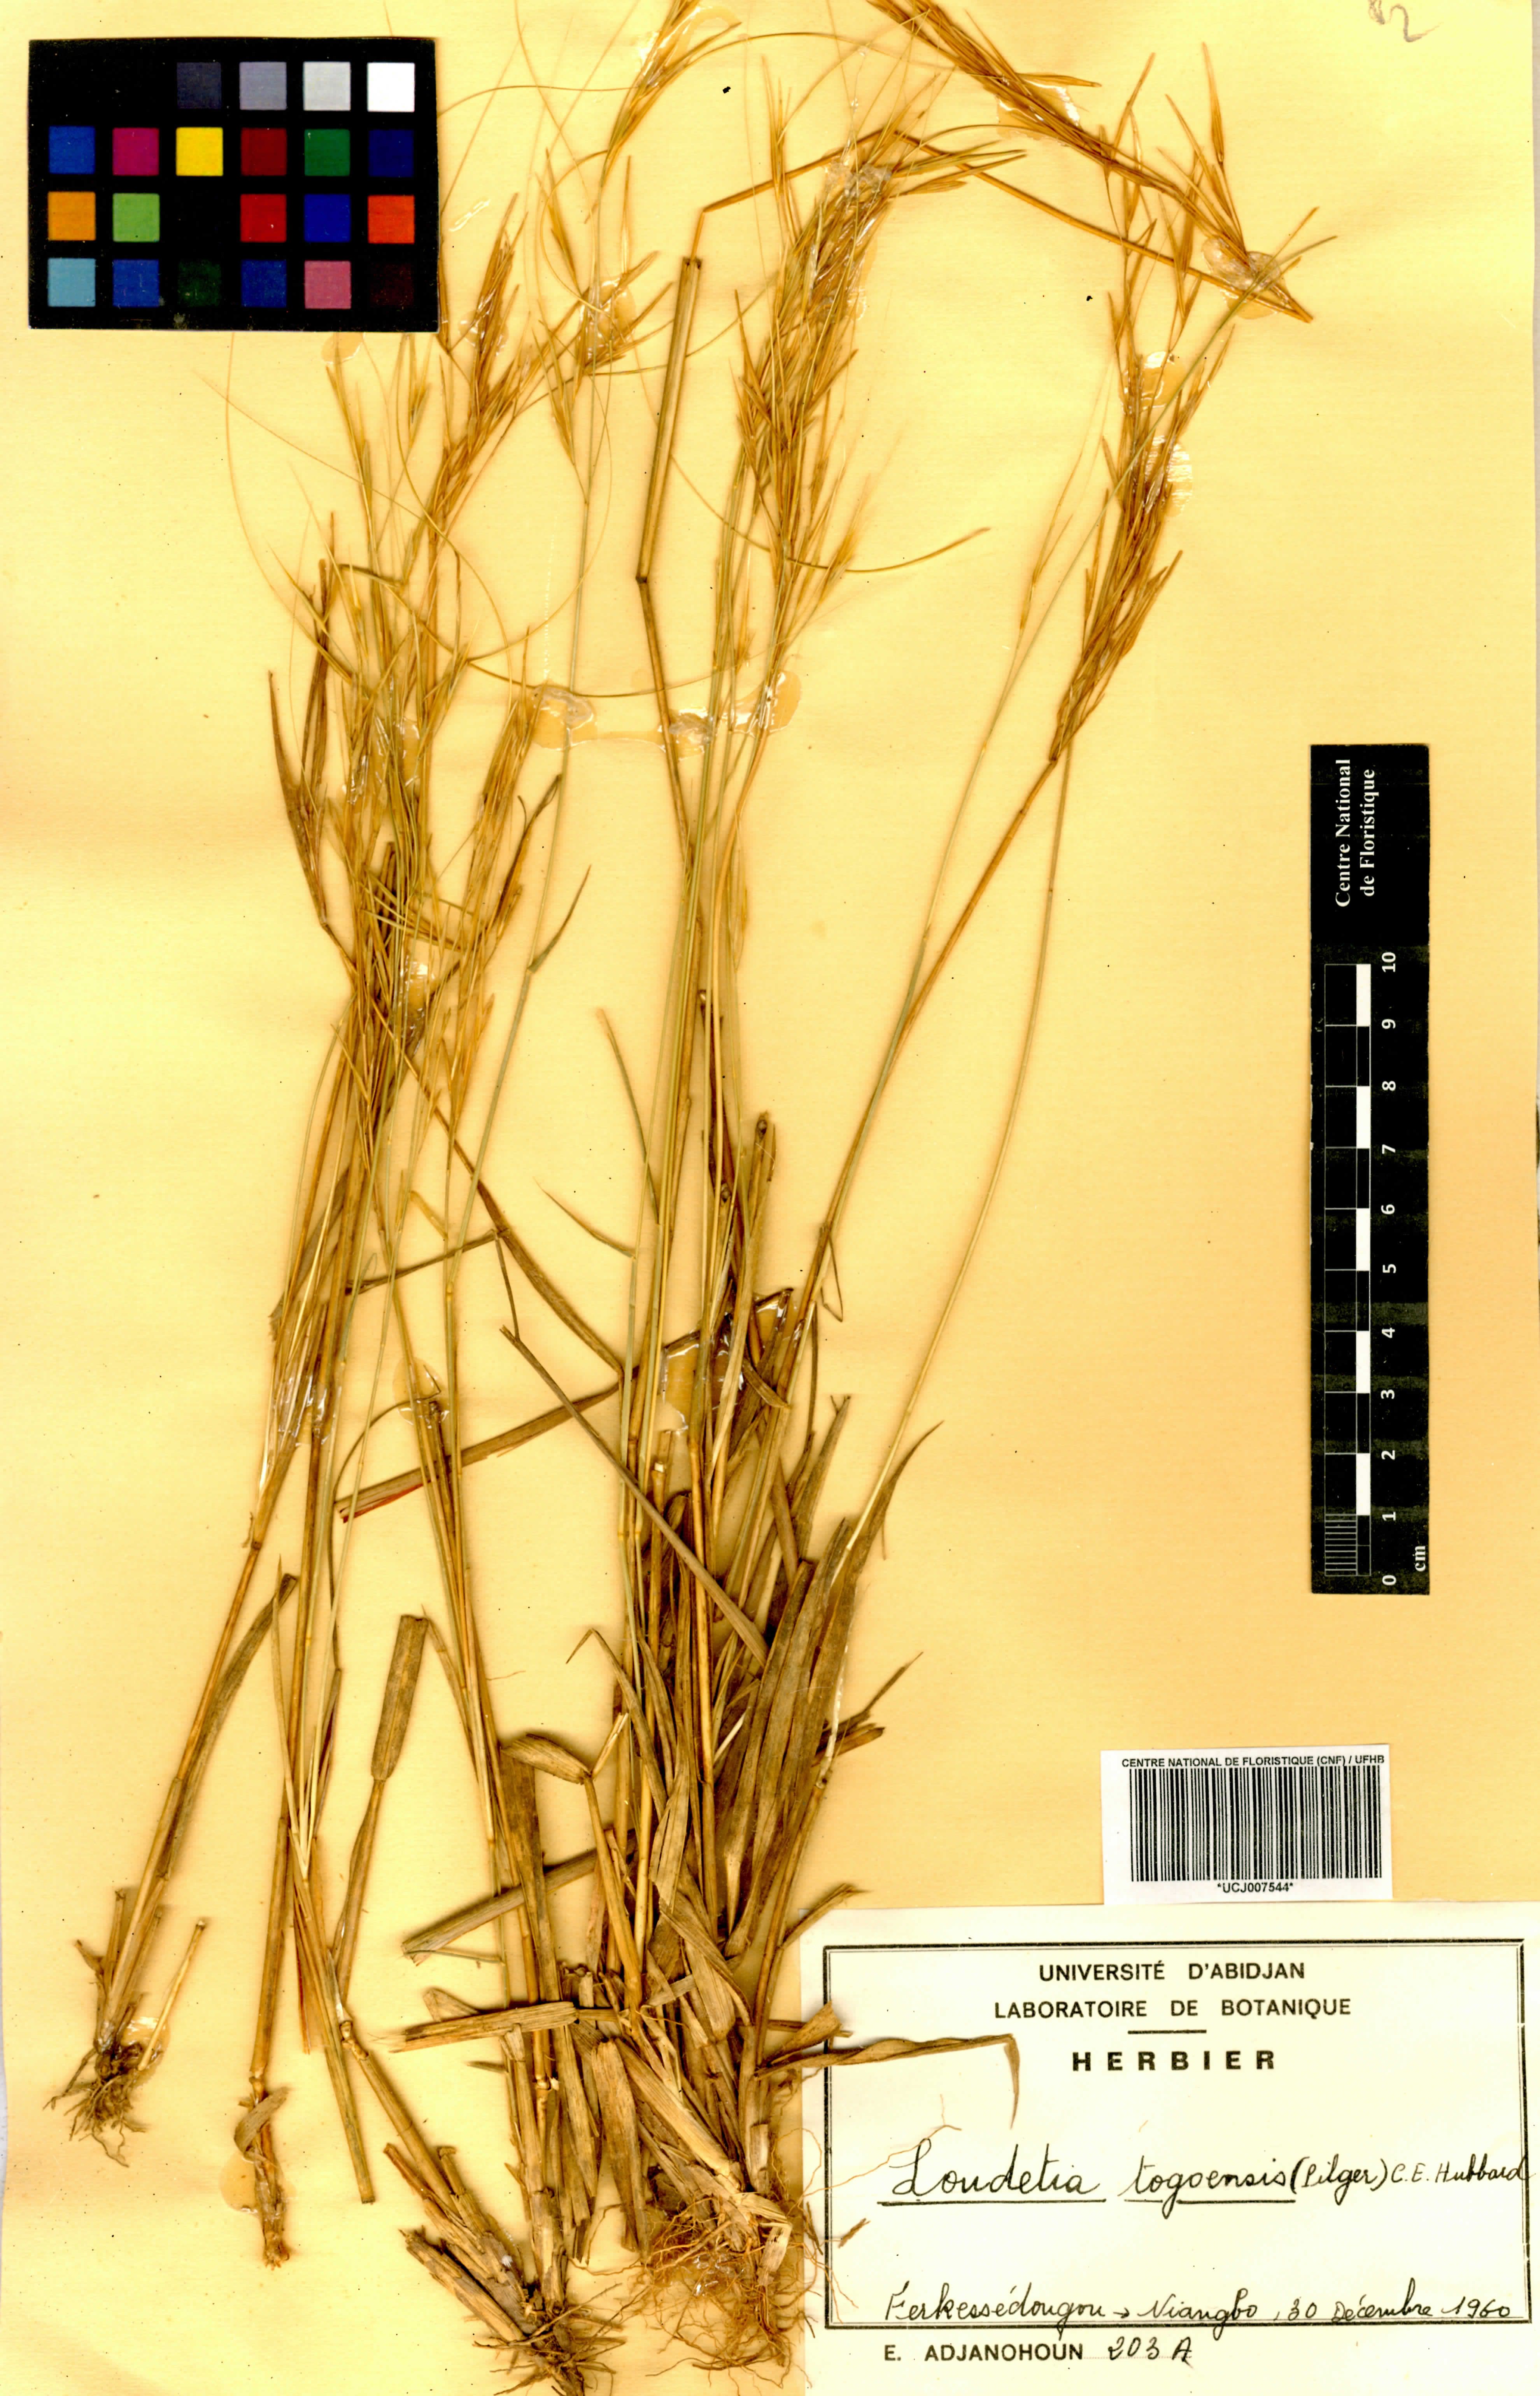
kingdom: Plantae
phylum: Tracheophyta
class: Liliopsida
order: Poales
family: Poaceae
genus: Loudetia
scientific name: Loudetia togoensis
